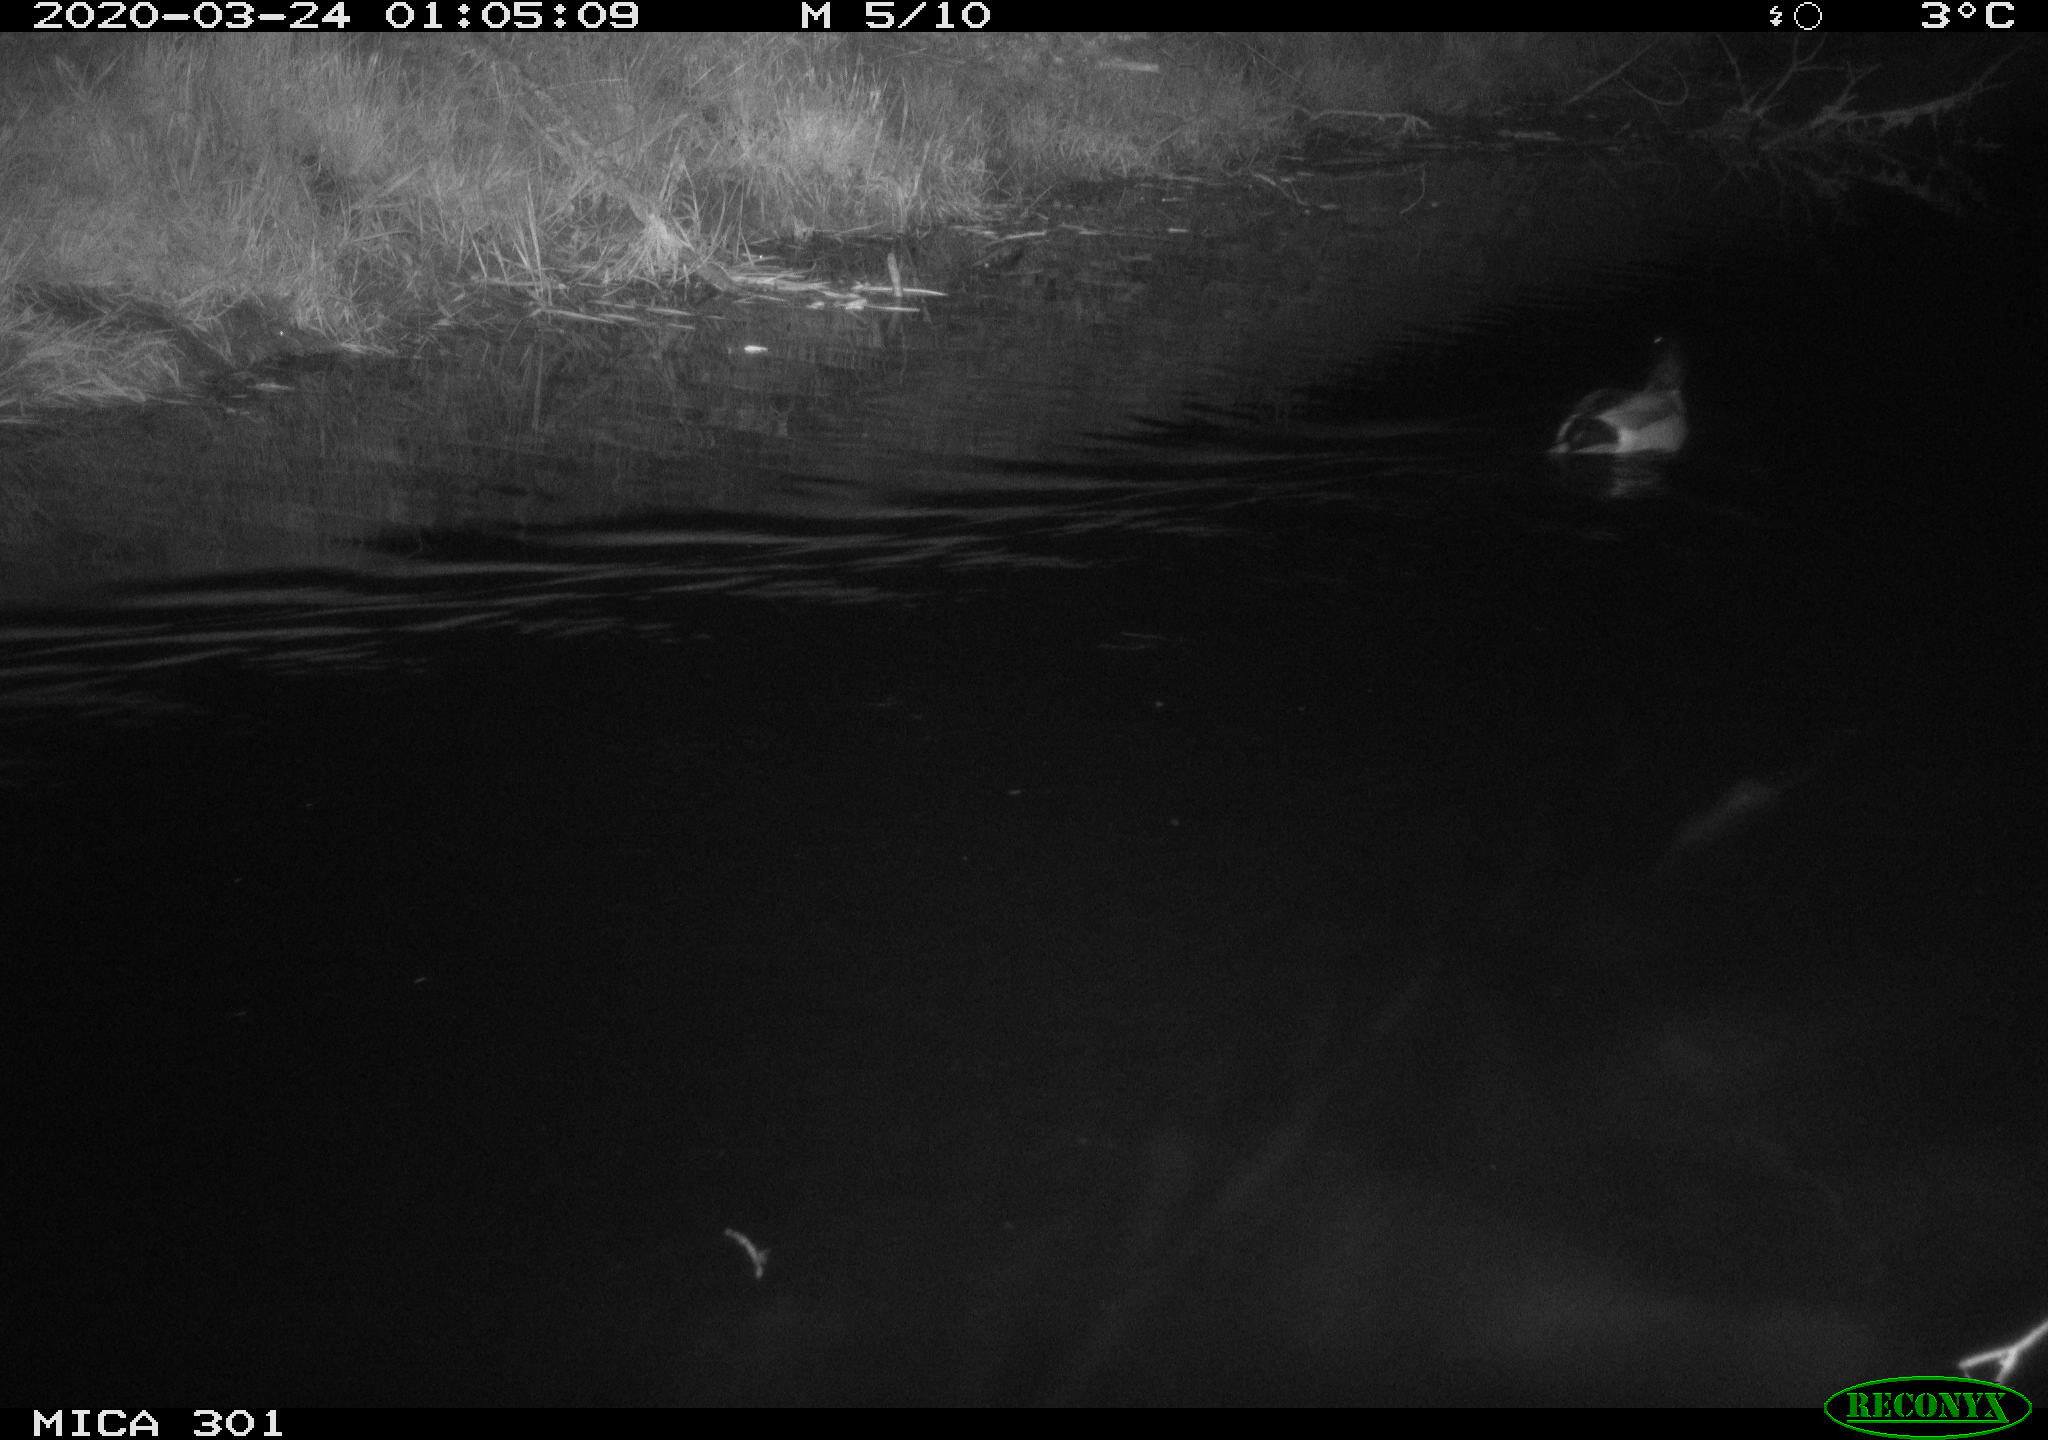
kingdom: Animalia
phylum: Chordata
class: Aves
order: Anseriformes
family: Anatidae
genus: Anas
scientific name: Anas platyrhynchos
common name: Mallard
